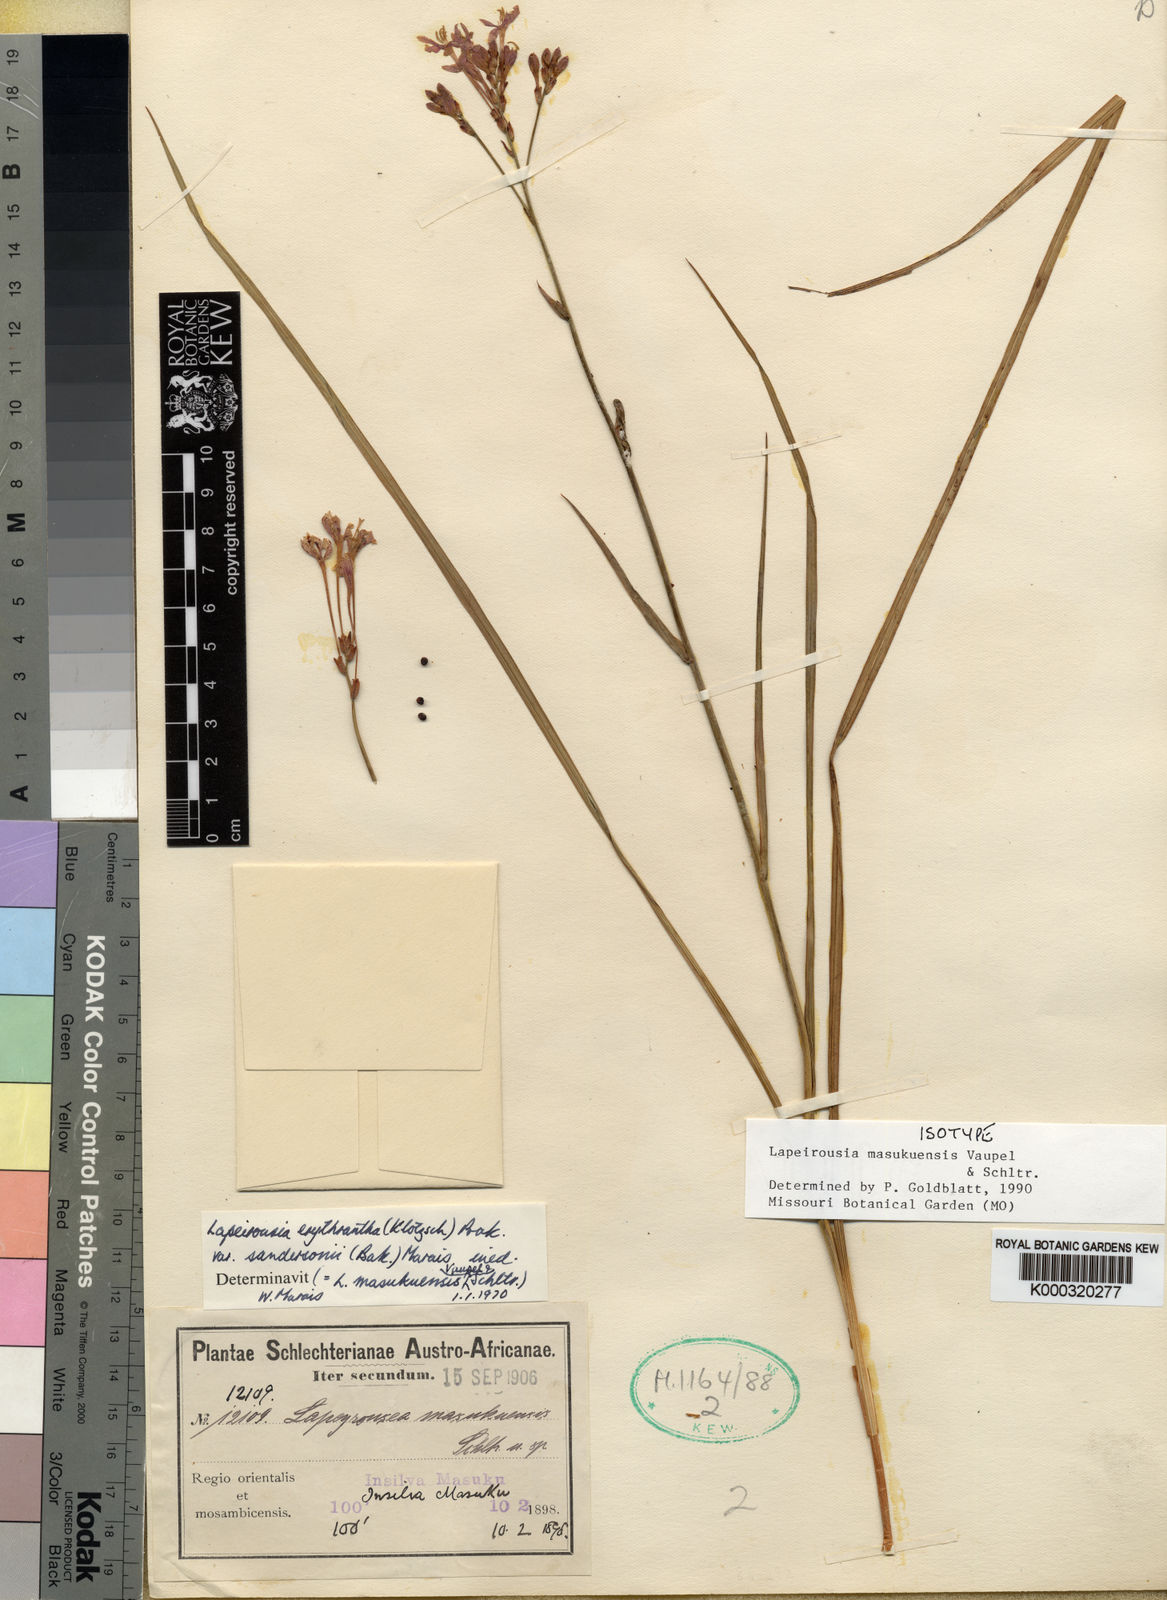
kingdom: Plantae
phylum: Tracheophyta
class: Liliopsida
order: Asparagales
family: Iridaceae
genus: Afrosolen
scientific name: Afrosolen masukuensis
